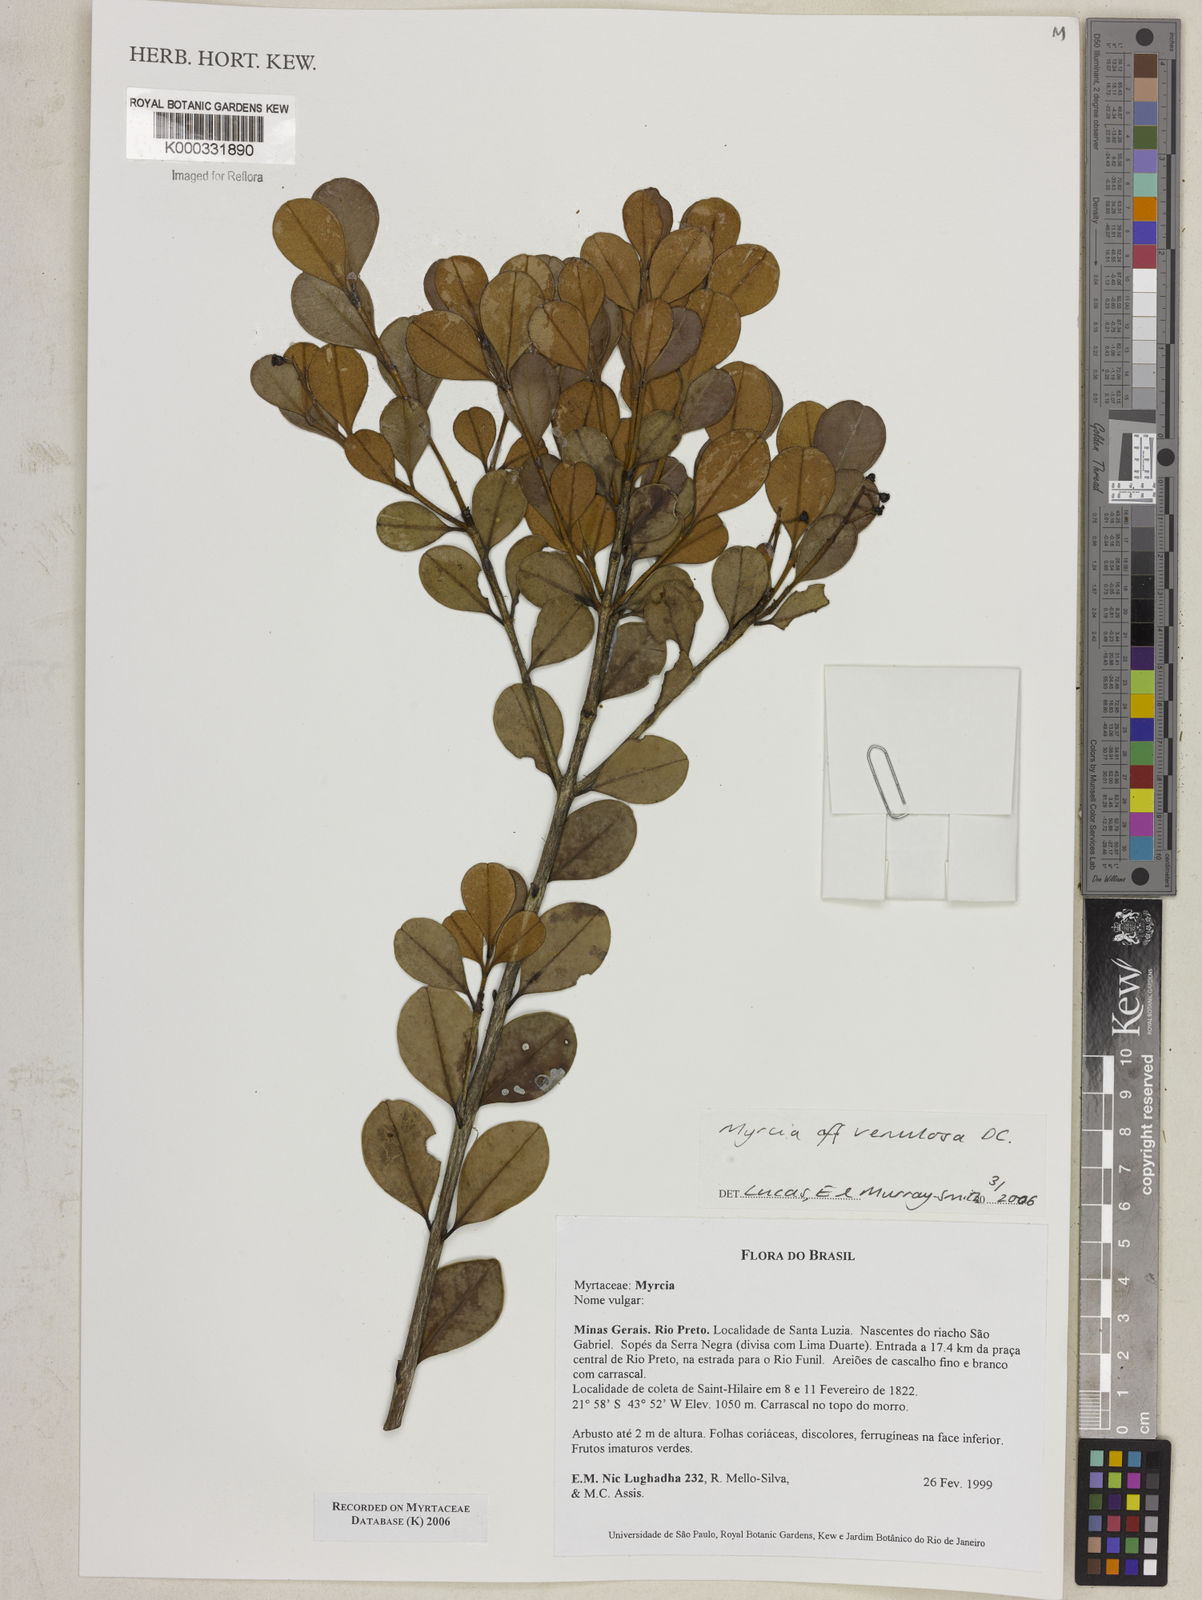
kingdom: Plantae
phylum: Tracheophyta
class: Magnoliopsida
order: Myrtales
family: Myrtaceae
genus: Myrcia
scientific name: Myrcia
